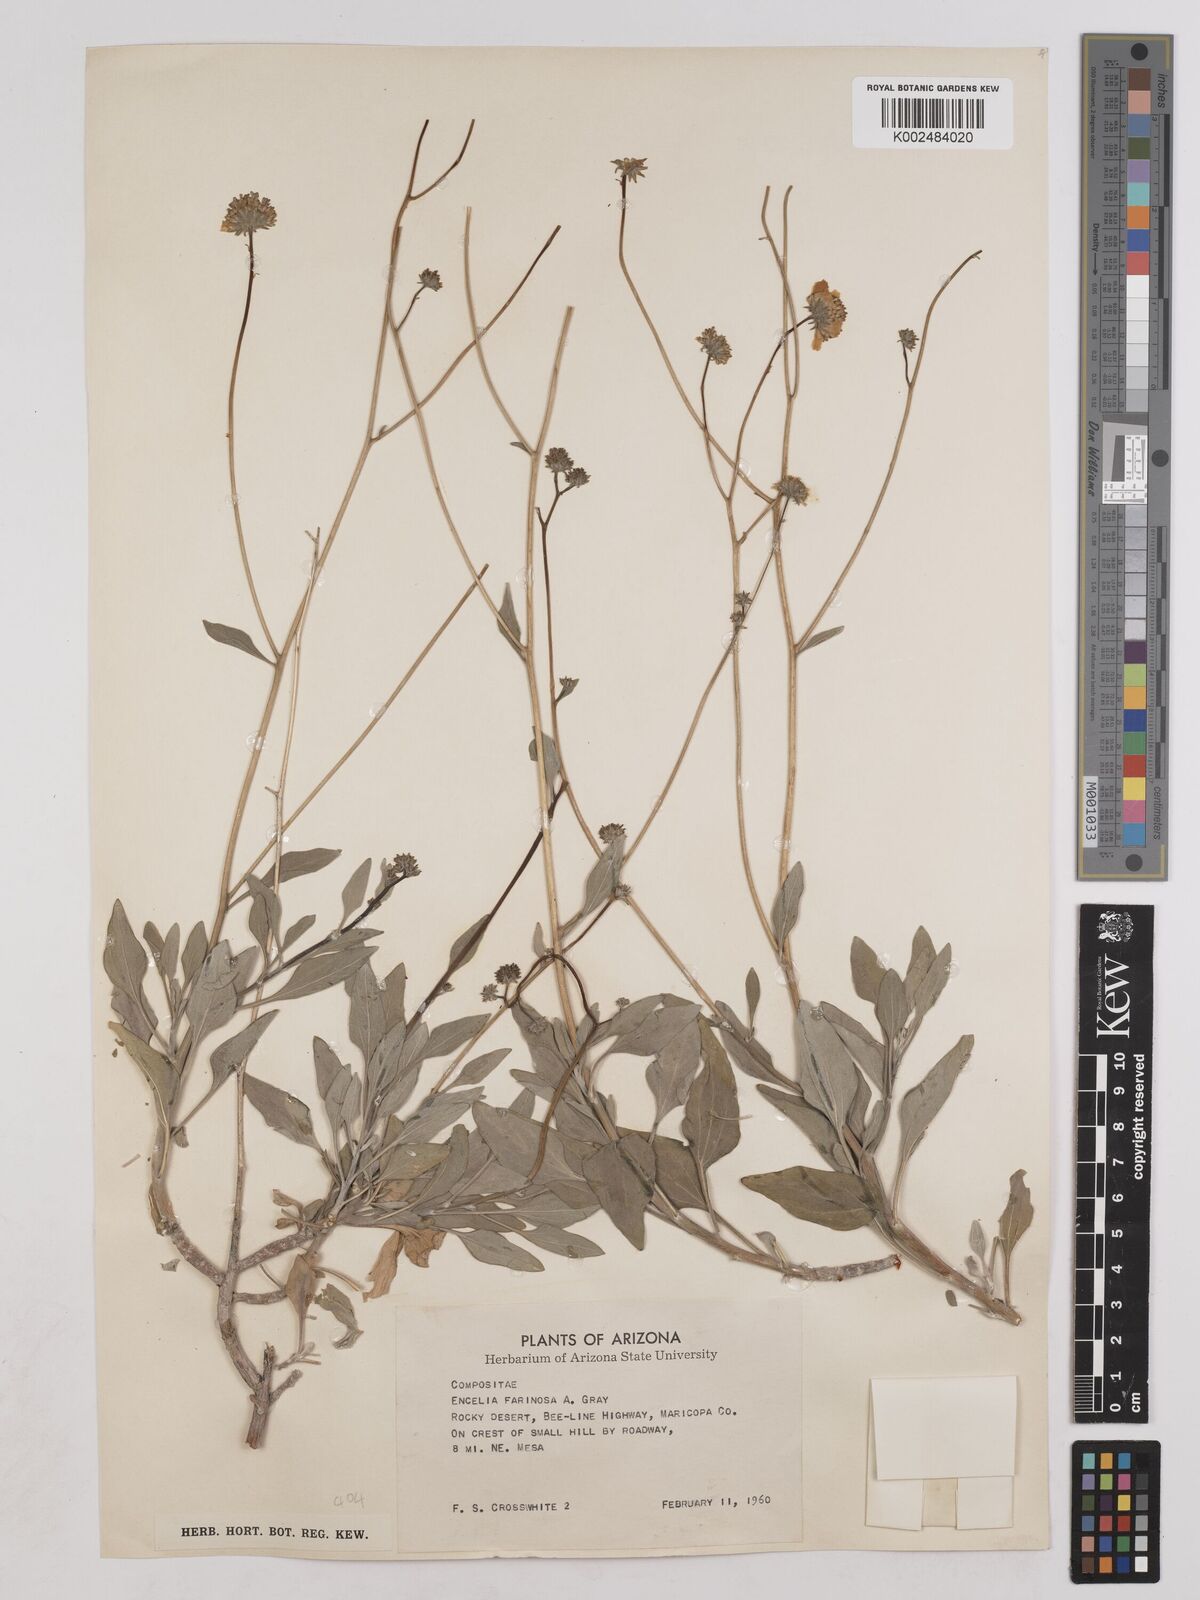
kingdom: Plantae
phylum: Tracheophyta
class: Magnoliopsida
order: Asterales
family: Asteraceae
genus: Encelia
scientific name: Encelia farinosa
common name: Brittlebush
